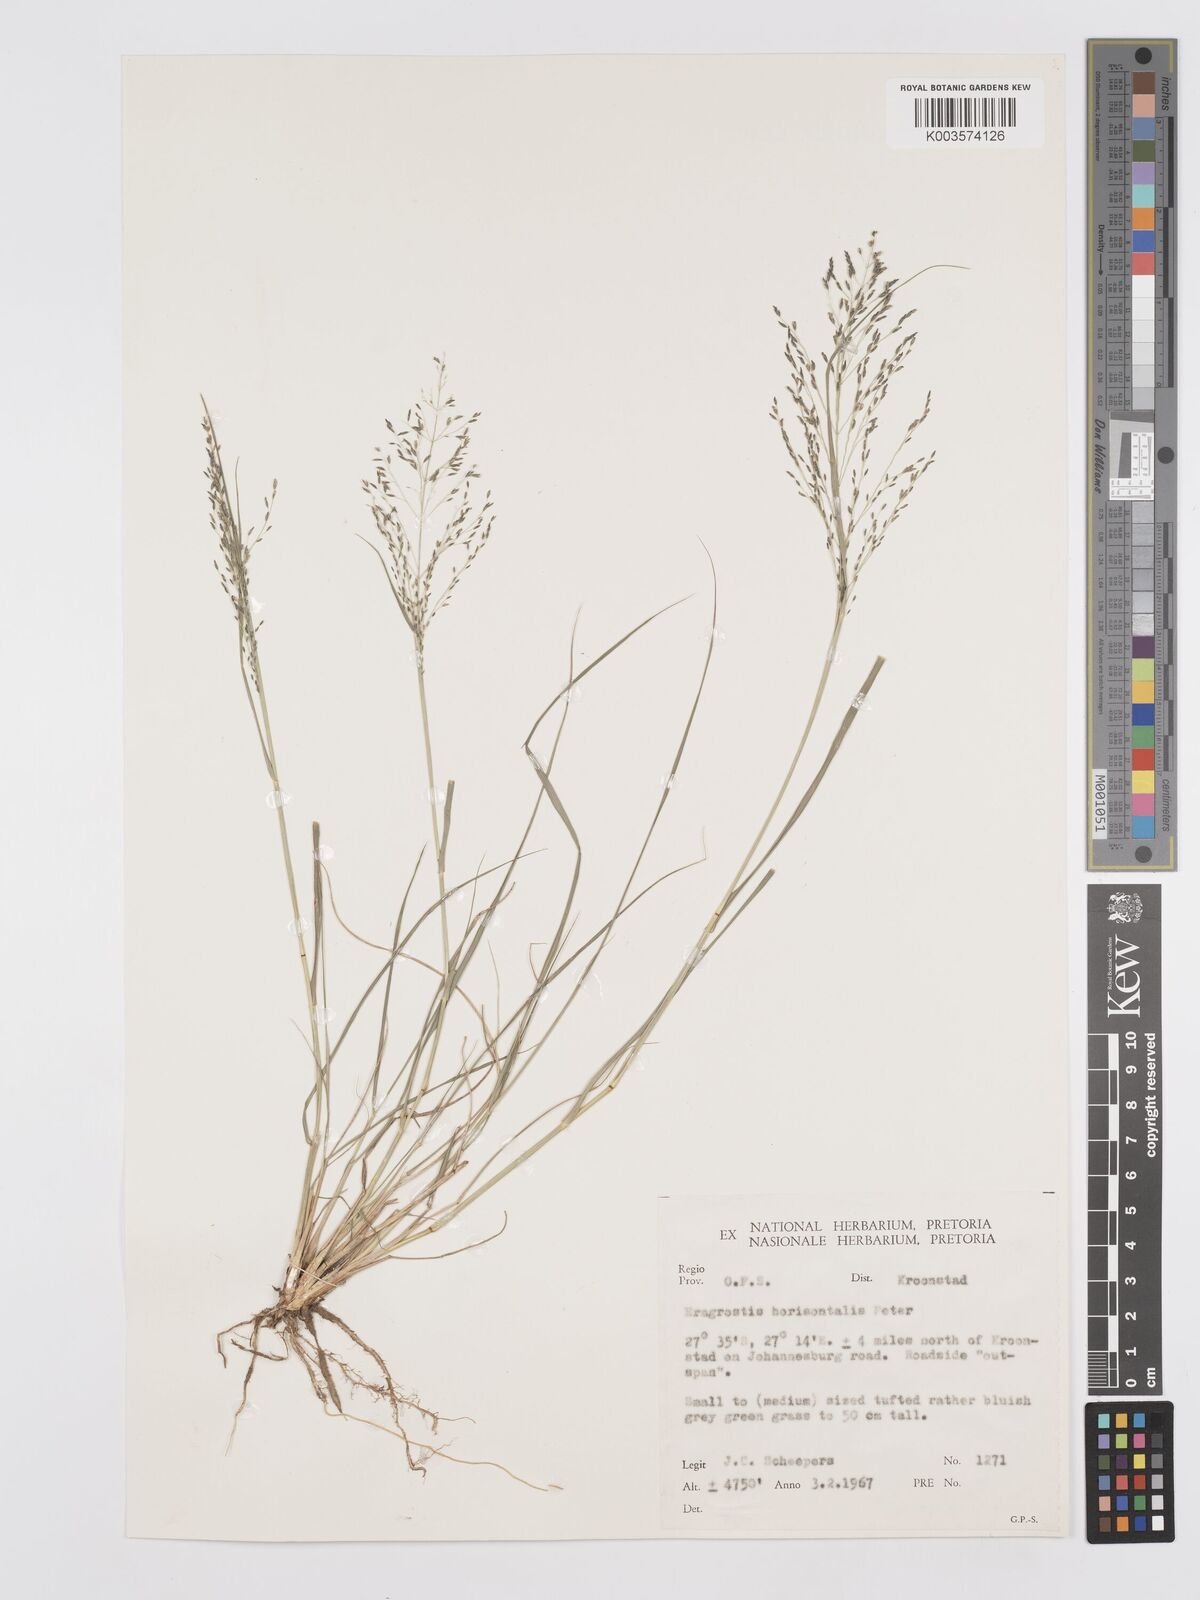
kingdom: Plantae
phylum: Tracheophyta
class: Liliopsida
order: Poales
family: Poaceae
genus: Eragrostis
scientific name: Eragrostis cylindriflora
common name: Cylinderflower lovegrass
